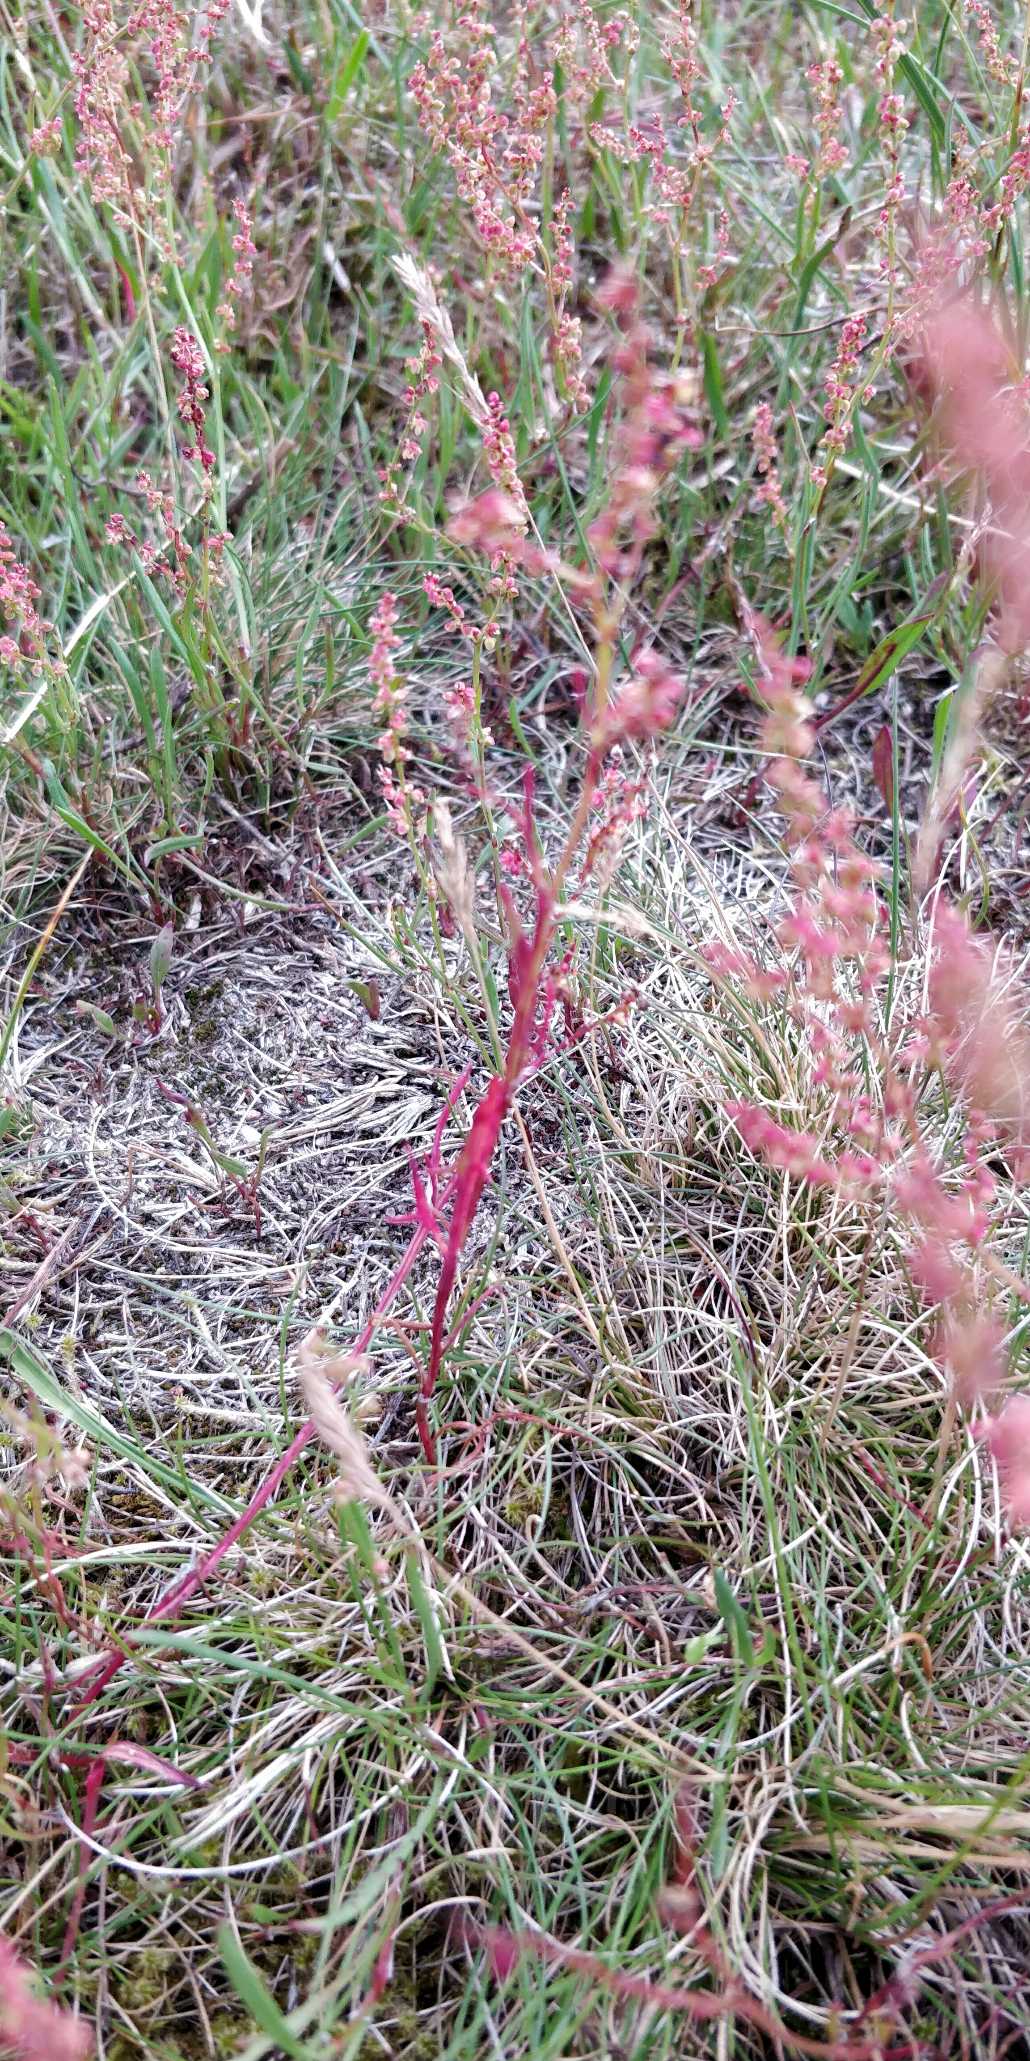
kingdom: Plantae
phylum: Tracheophyta
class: Magnoliopsida
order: Caryophyllales
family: Polygonaceae
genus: Rumex
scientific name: Rumex acetosella
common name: Rødknæ
